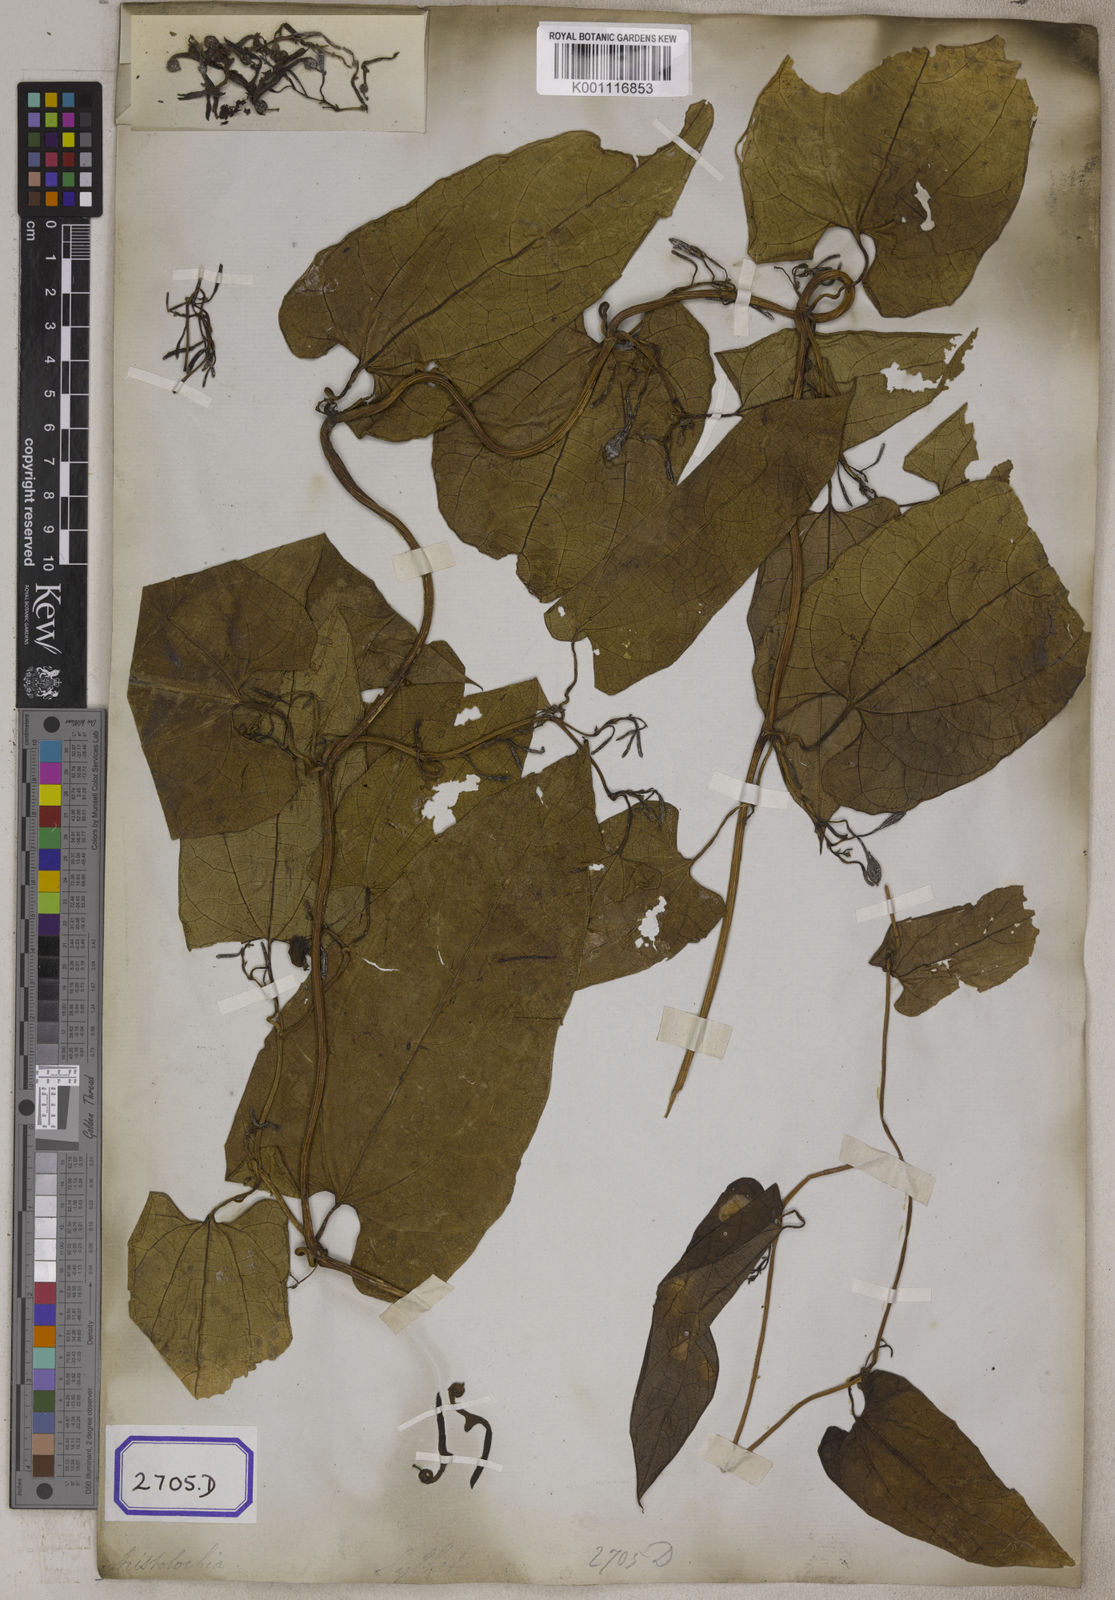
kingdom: Plantae
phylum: Tracheophyta
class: Magnoliopsida
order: Piperales
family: Aristolochiaceae
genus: Aristolochia
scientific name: Aristolochia acuminata
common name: Indian birthwort
